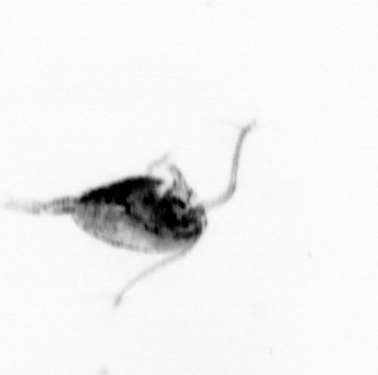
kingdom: Animalia
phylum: Arthropoda
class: Copepoda
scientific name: Copepoda
